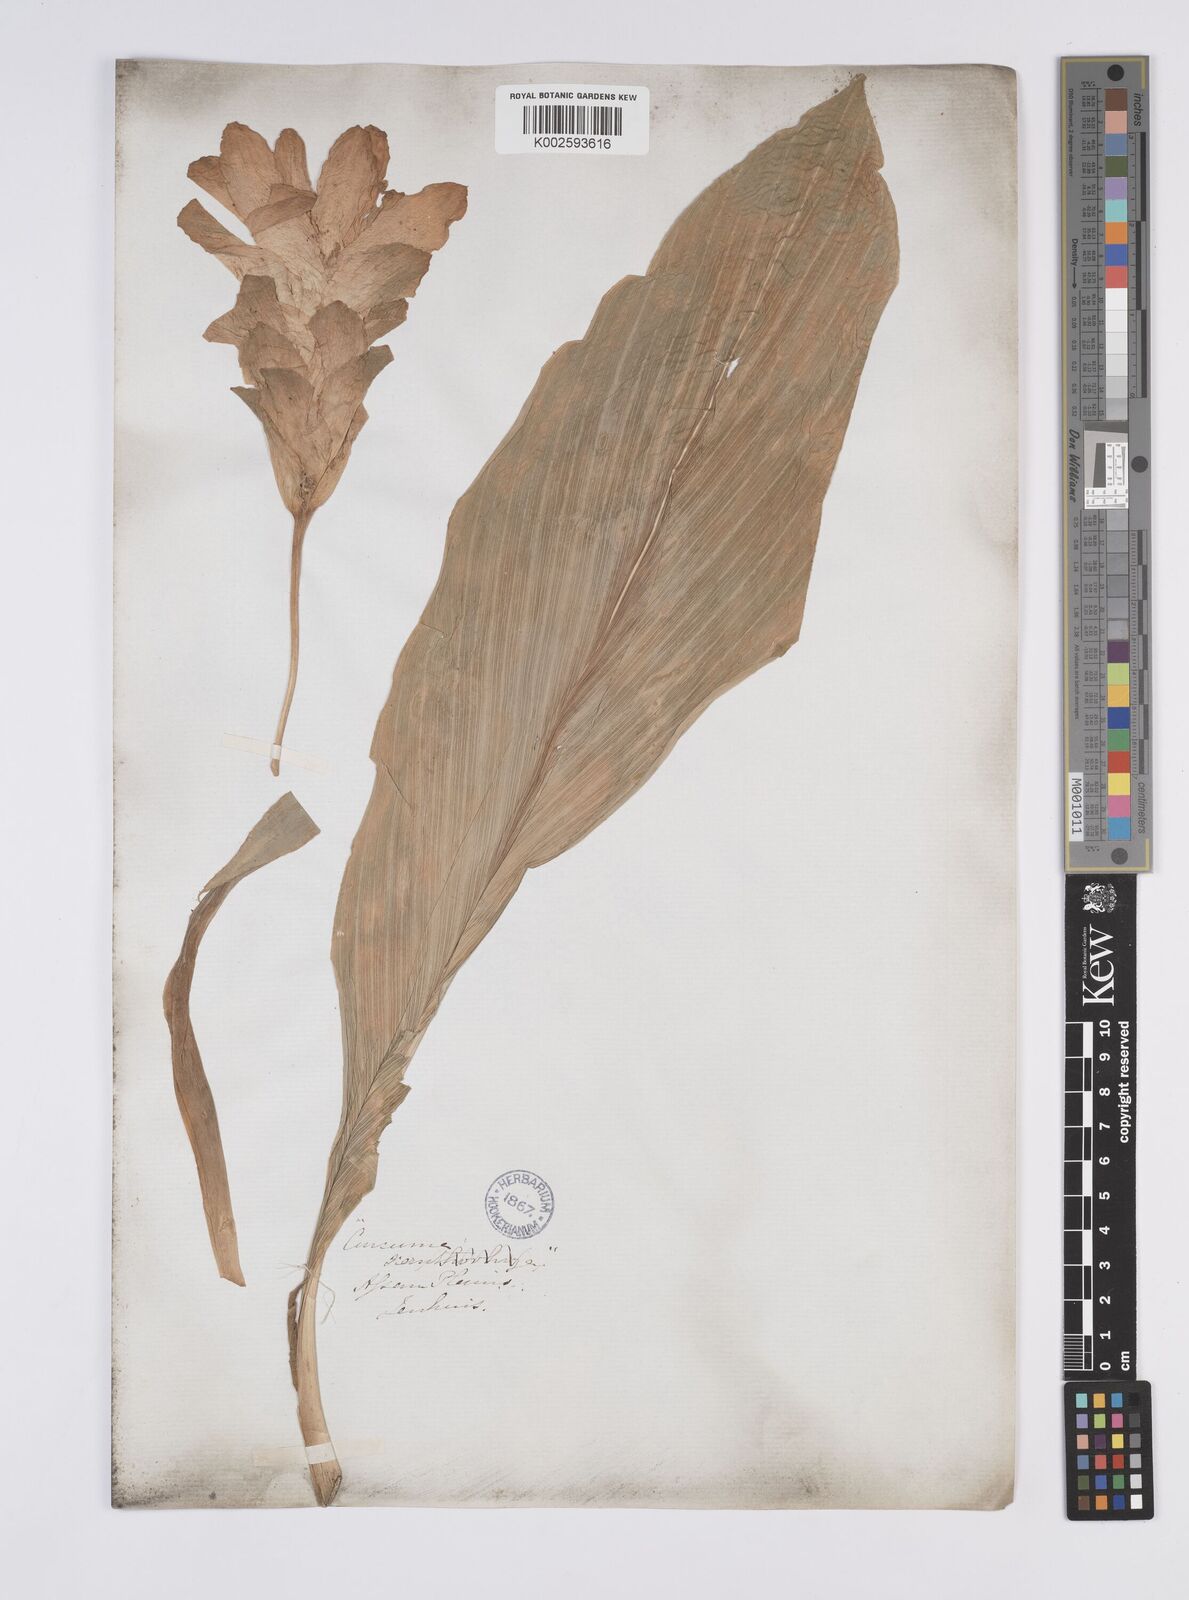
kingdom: Plantae
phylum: Tracheophyta
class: Liliopsida
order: Zingiberales
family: Zingiberaceae
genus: Curcuma
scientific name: Curcuma
